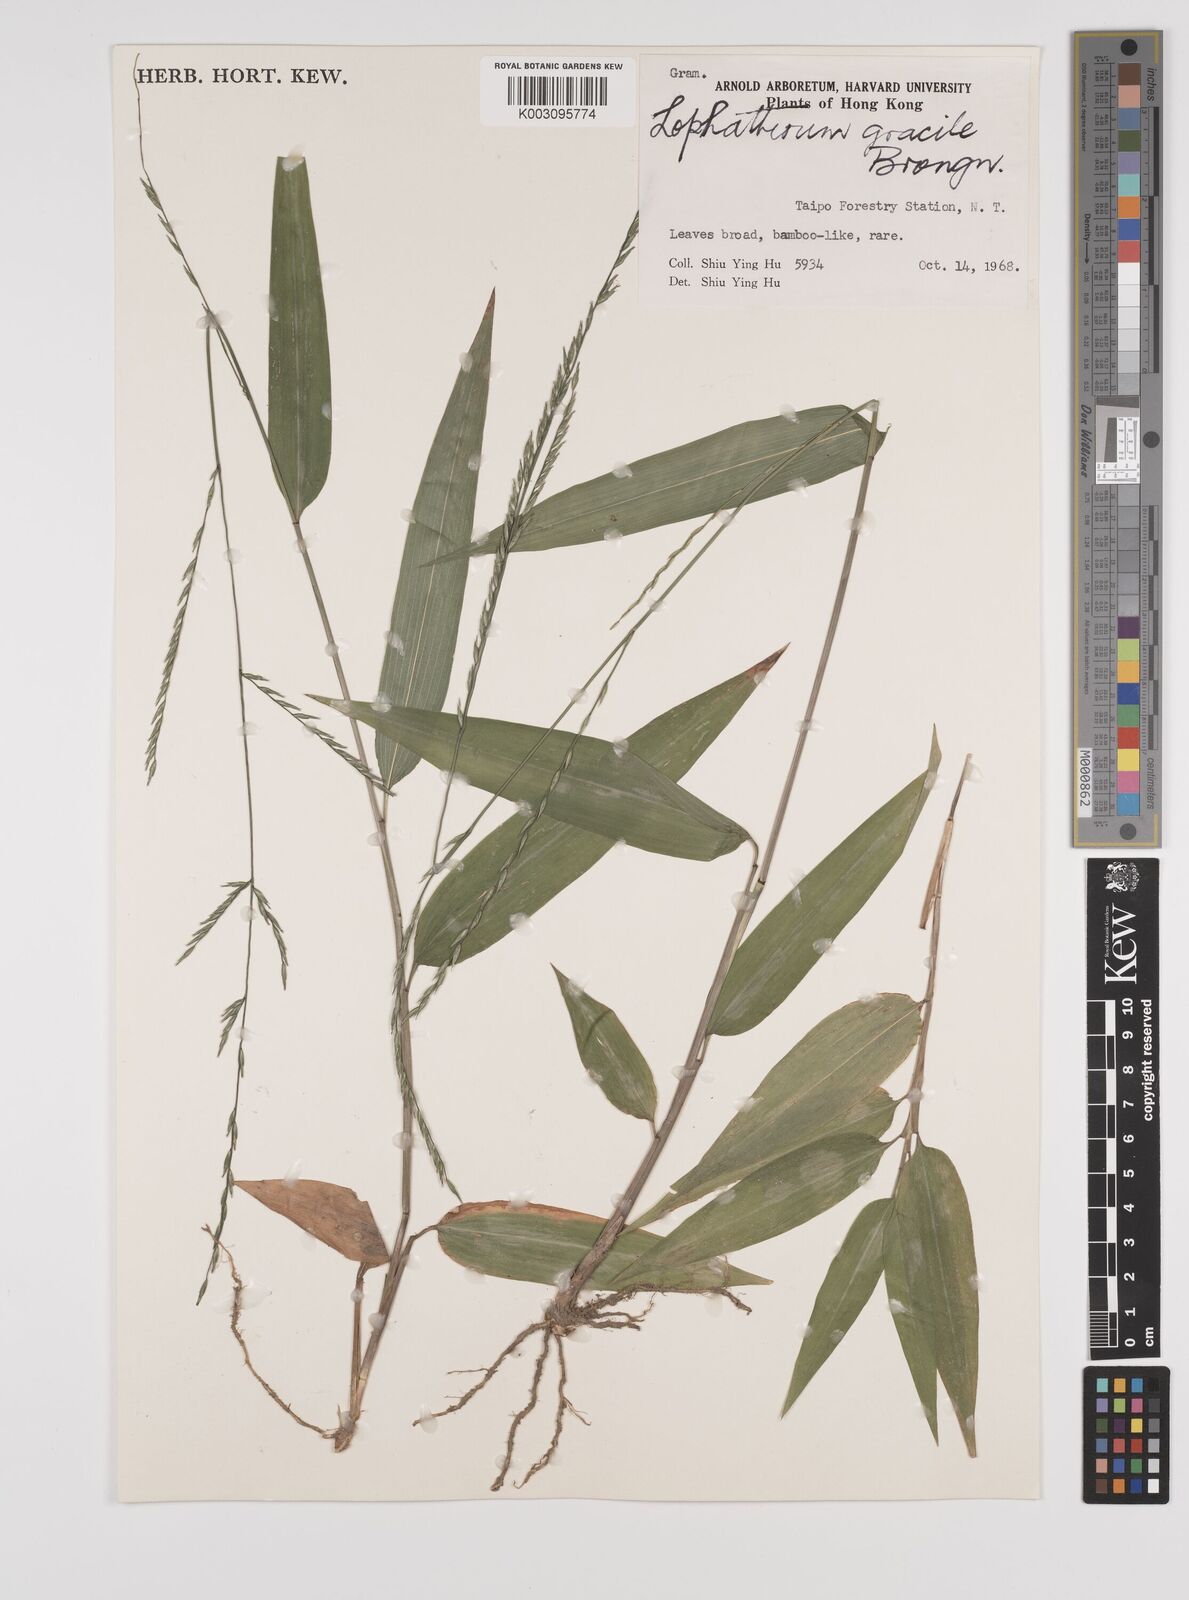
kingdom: Plantae
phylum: Tracheophyta
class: Liliopsida
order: Poales
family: Poaceae
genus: Lophatherum
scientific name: Lophatherum gracile
